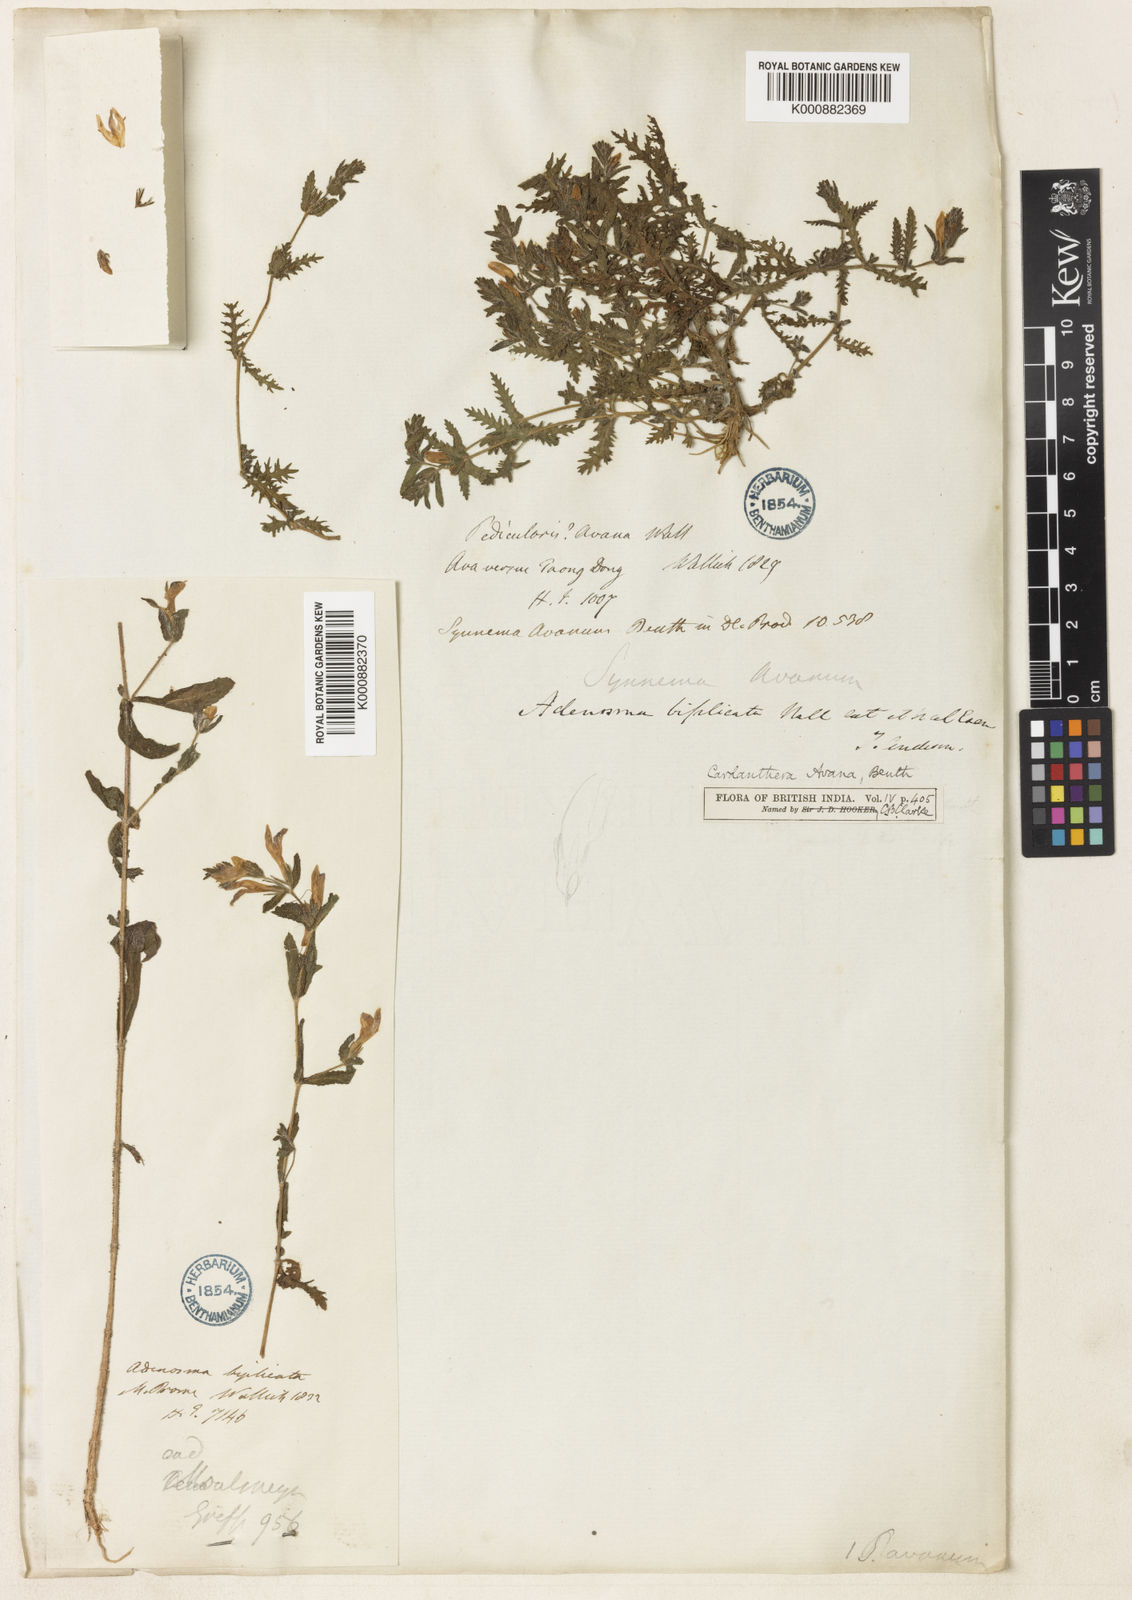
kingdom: Plantae
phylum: Tracheophyta
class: Magnoliopsida
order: Lamiales
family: Acanthaceae
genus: Hygrophila
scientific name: Hygrophila biplicata
